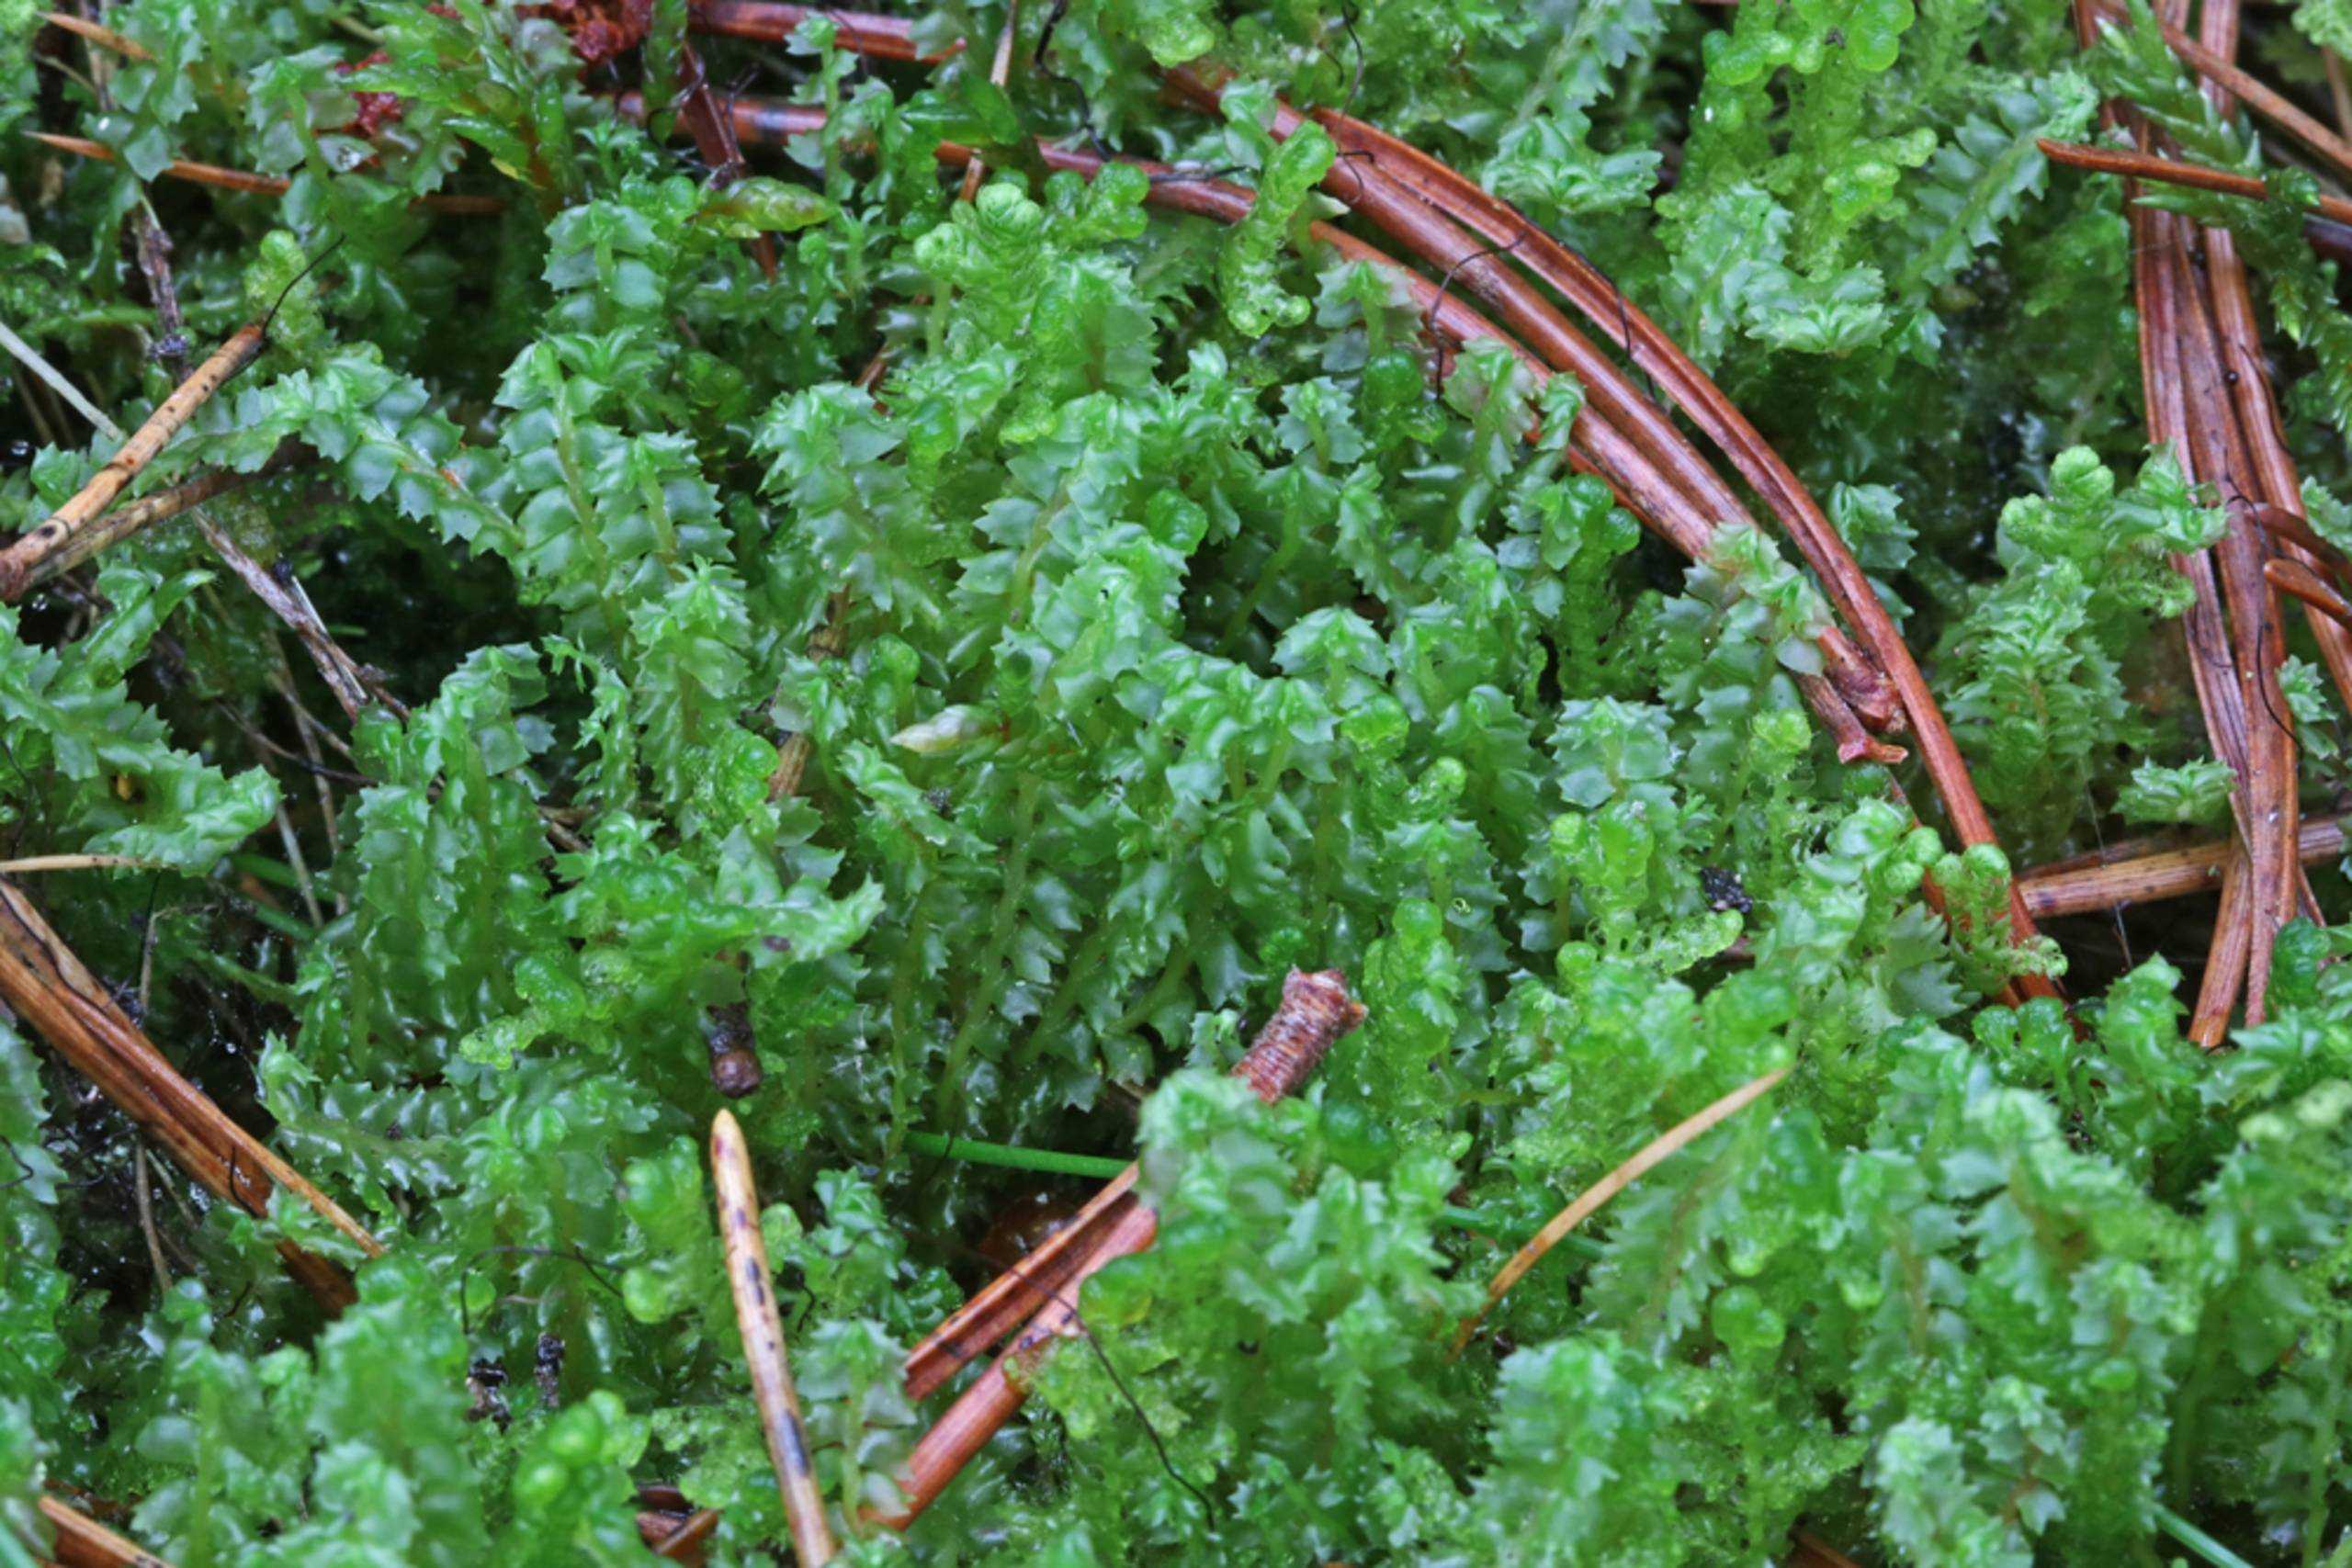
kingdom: Plantae
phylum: Marchantiophyta
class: Jungermanniopsida
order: Jungermanniales
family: Anastrophyllaceae
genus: Barbilophozia
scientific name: Barbilophozia barbata
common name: Skægget flerfligmos
